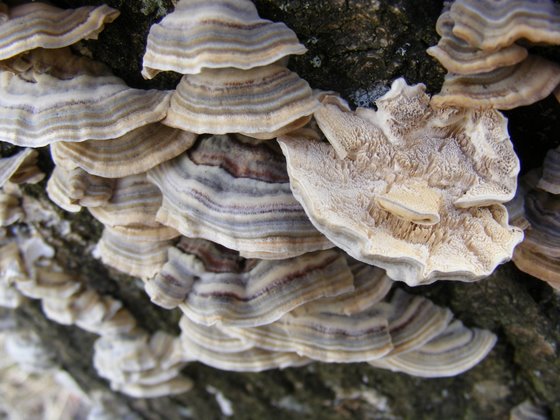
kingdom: Fungi
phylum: Basidiomycota
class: Agaricomycetes
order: Polyporales
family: Polyporaceae
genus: Trametes
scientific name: Trametes ochracea
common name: bæltet læderporesvamp
